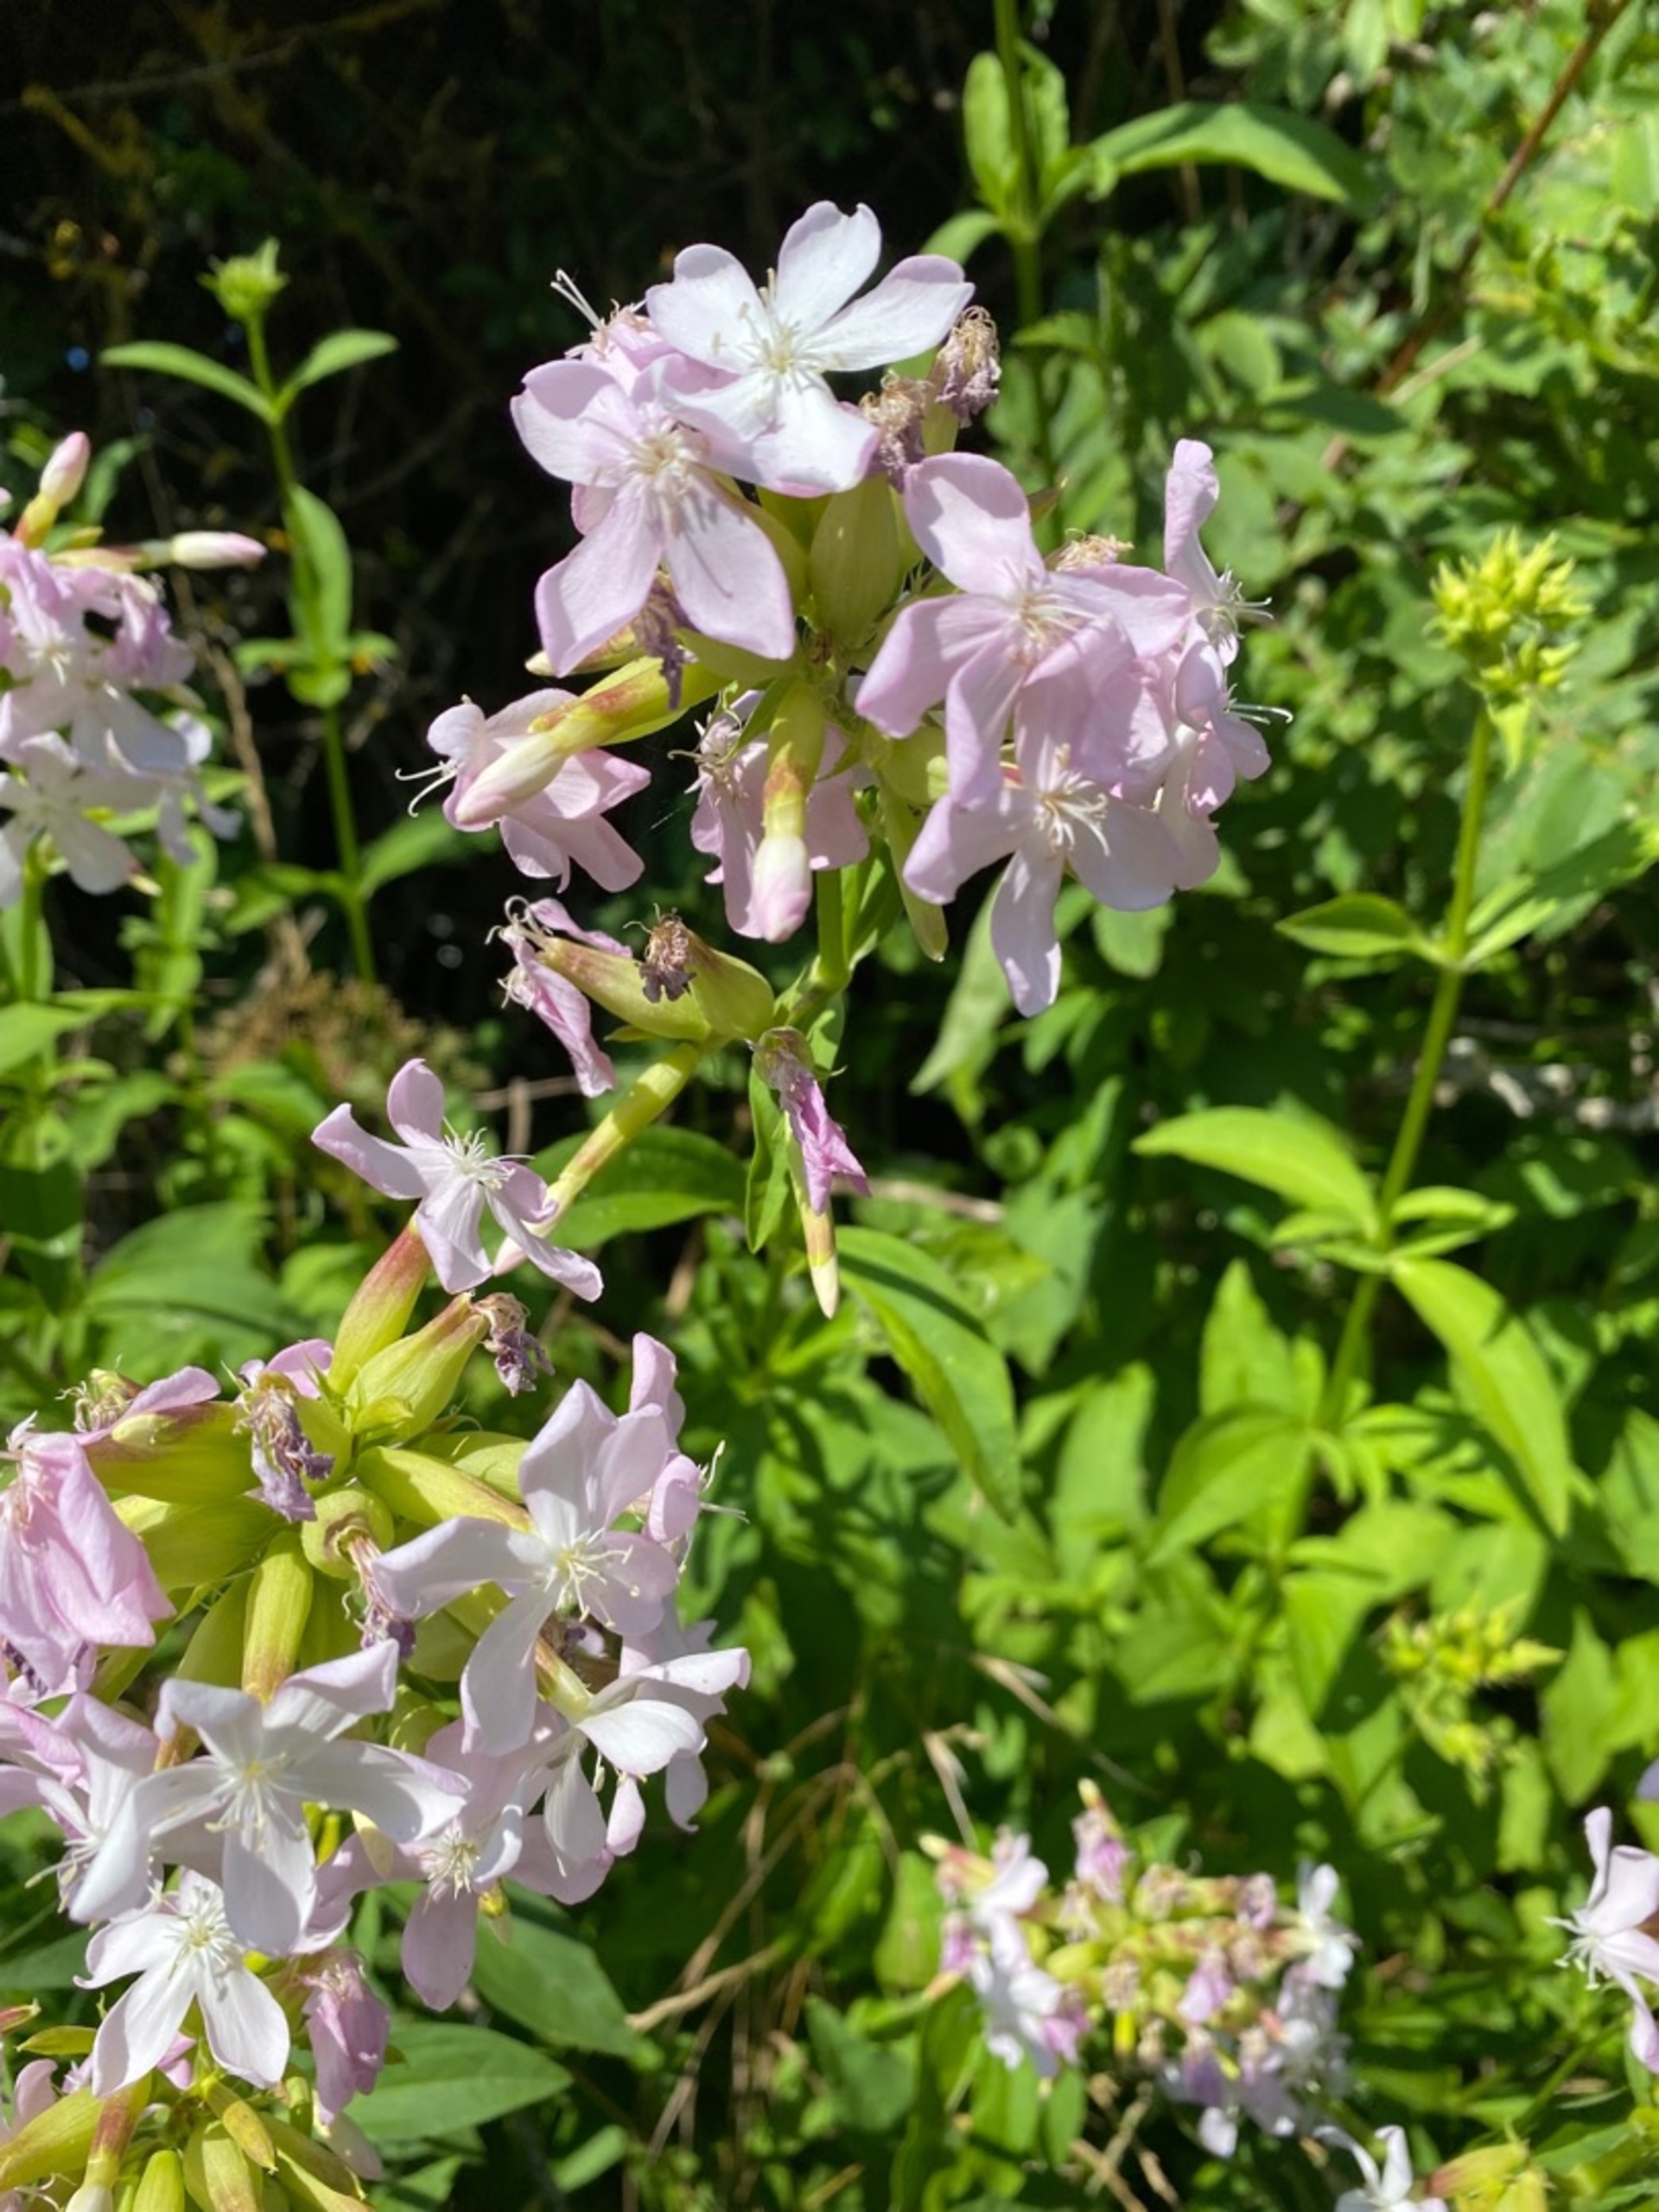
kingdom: Plantae
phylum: Tracheophyta
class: Magnoliopsida
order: Caryophyllales
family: Caryophyllaceae
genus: Saponaria
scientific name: Saponaria officinalis
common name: Sæbeurt
